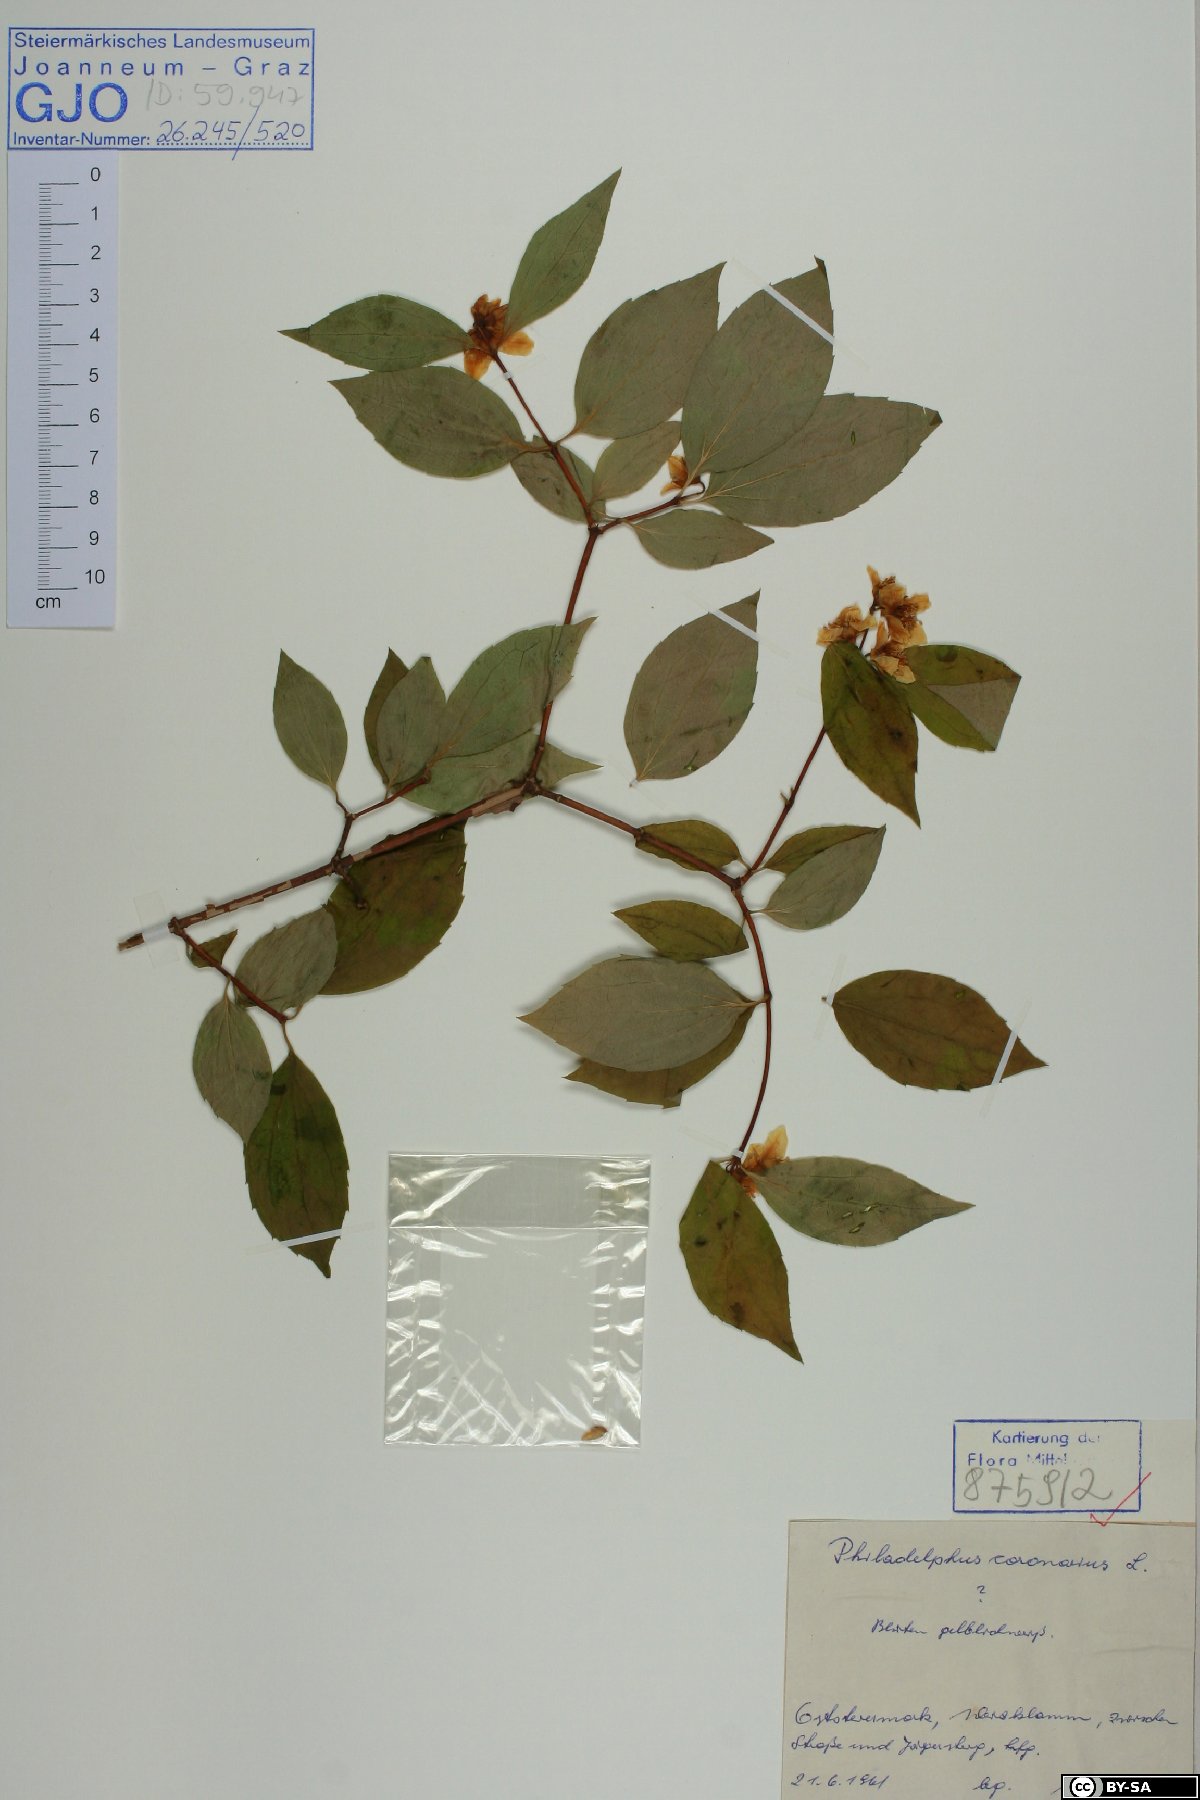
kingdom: Plantae
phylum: Tracheophyta
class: Magnoliopsida
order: Cornales
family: Hydrangeaceae
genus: Philadelphus
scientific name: Philadelphus coronarius
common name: Mock orange
